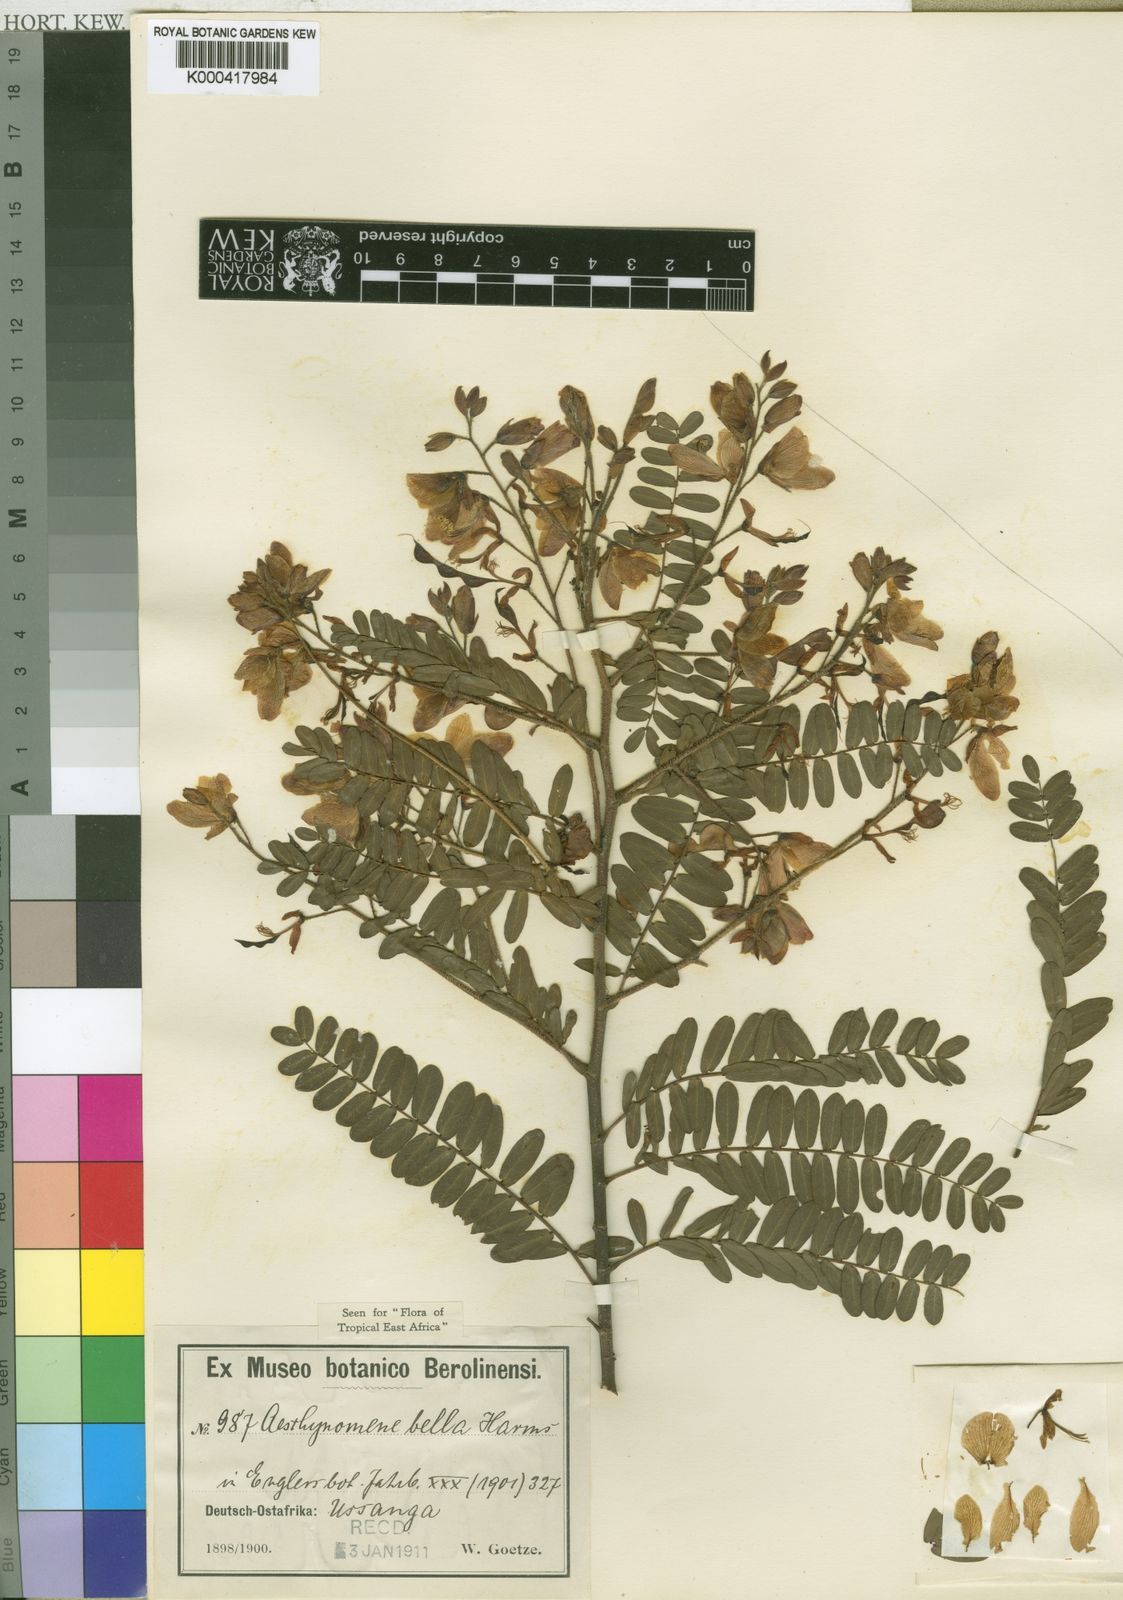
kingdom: Plantae
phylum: Tracheophyta
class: Magnoliopsida
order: Fabales
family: Fabaceae
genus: Aeschynomene
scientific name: Aeschynomene bella
